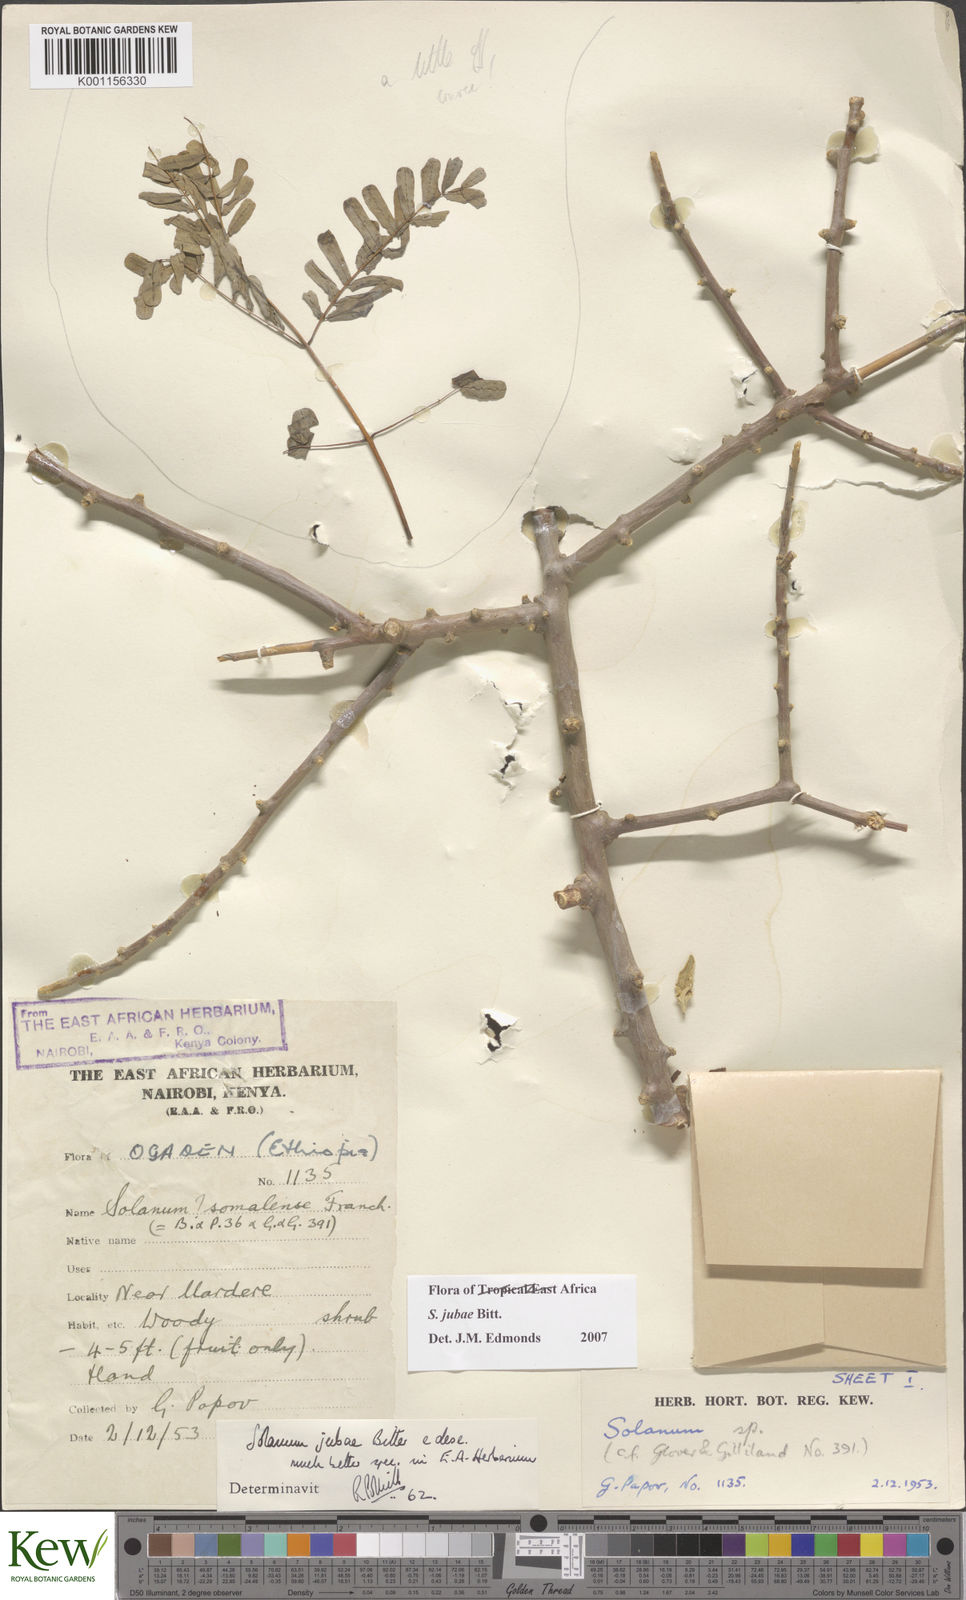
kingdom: Plantae
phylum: Tracheophyta
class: Magnoliopsida
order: Solanales
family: Solanaceae
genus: Solanum
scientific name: Solanum jubae
